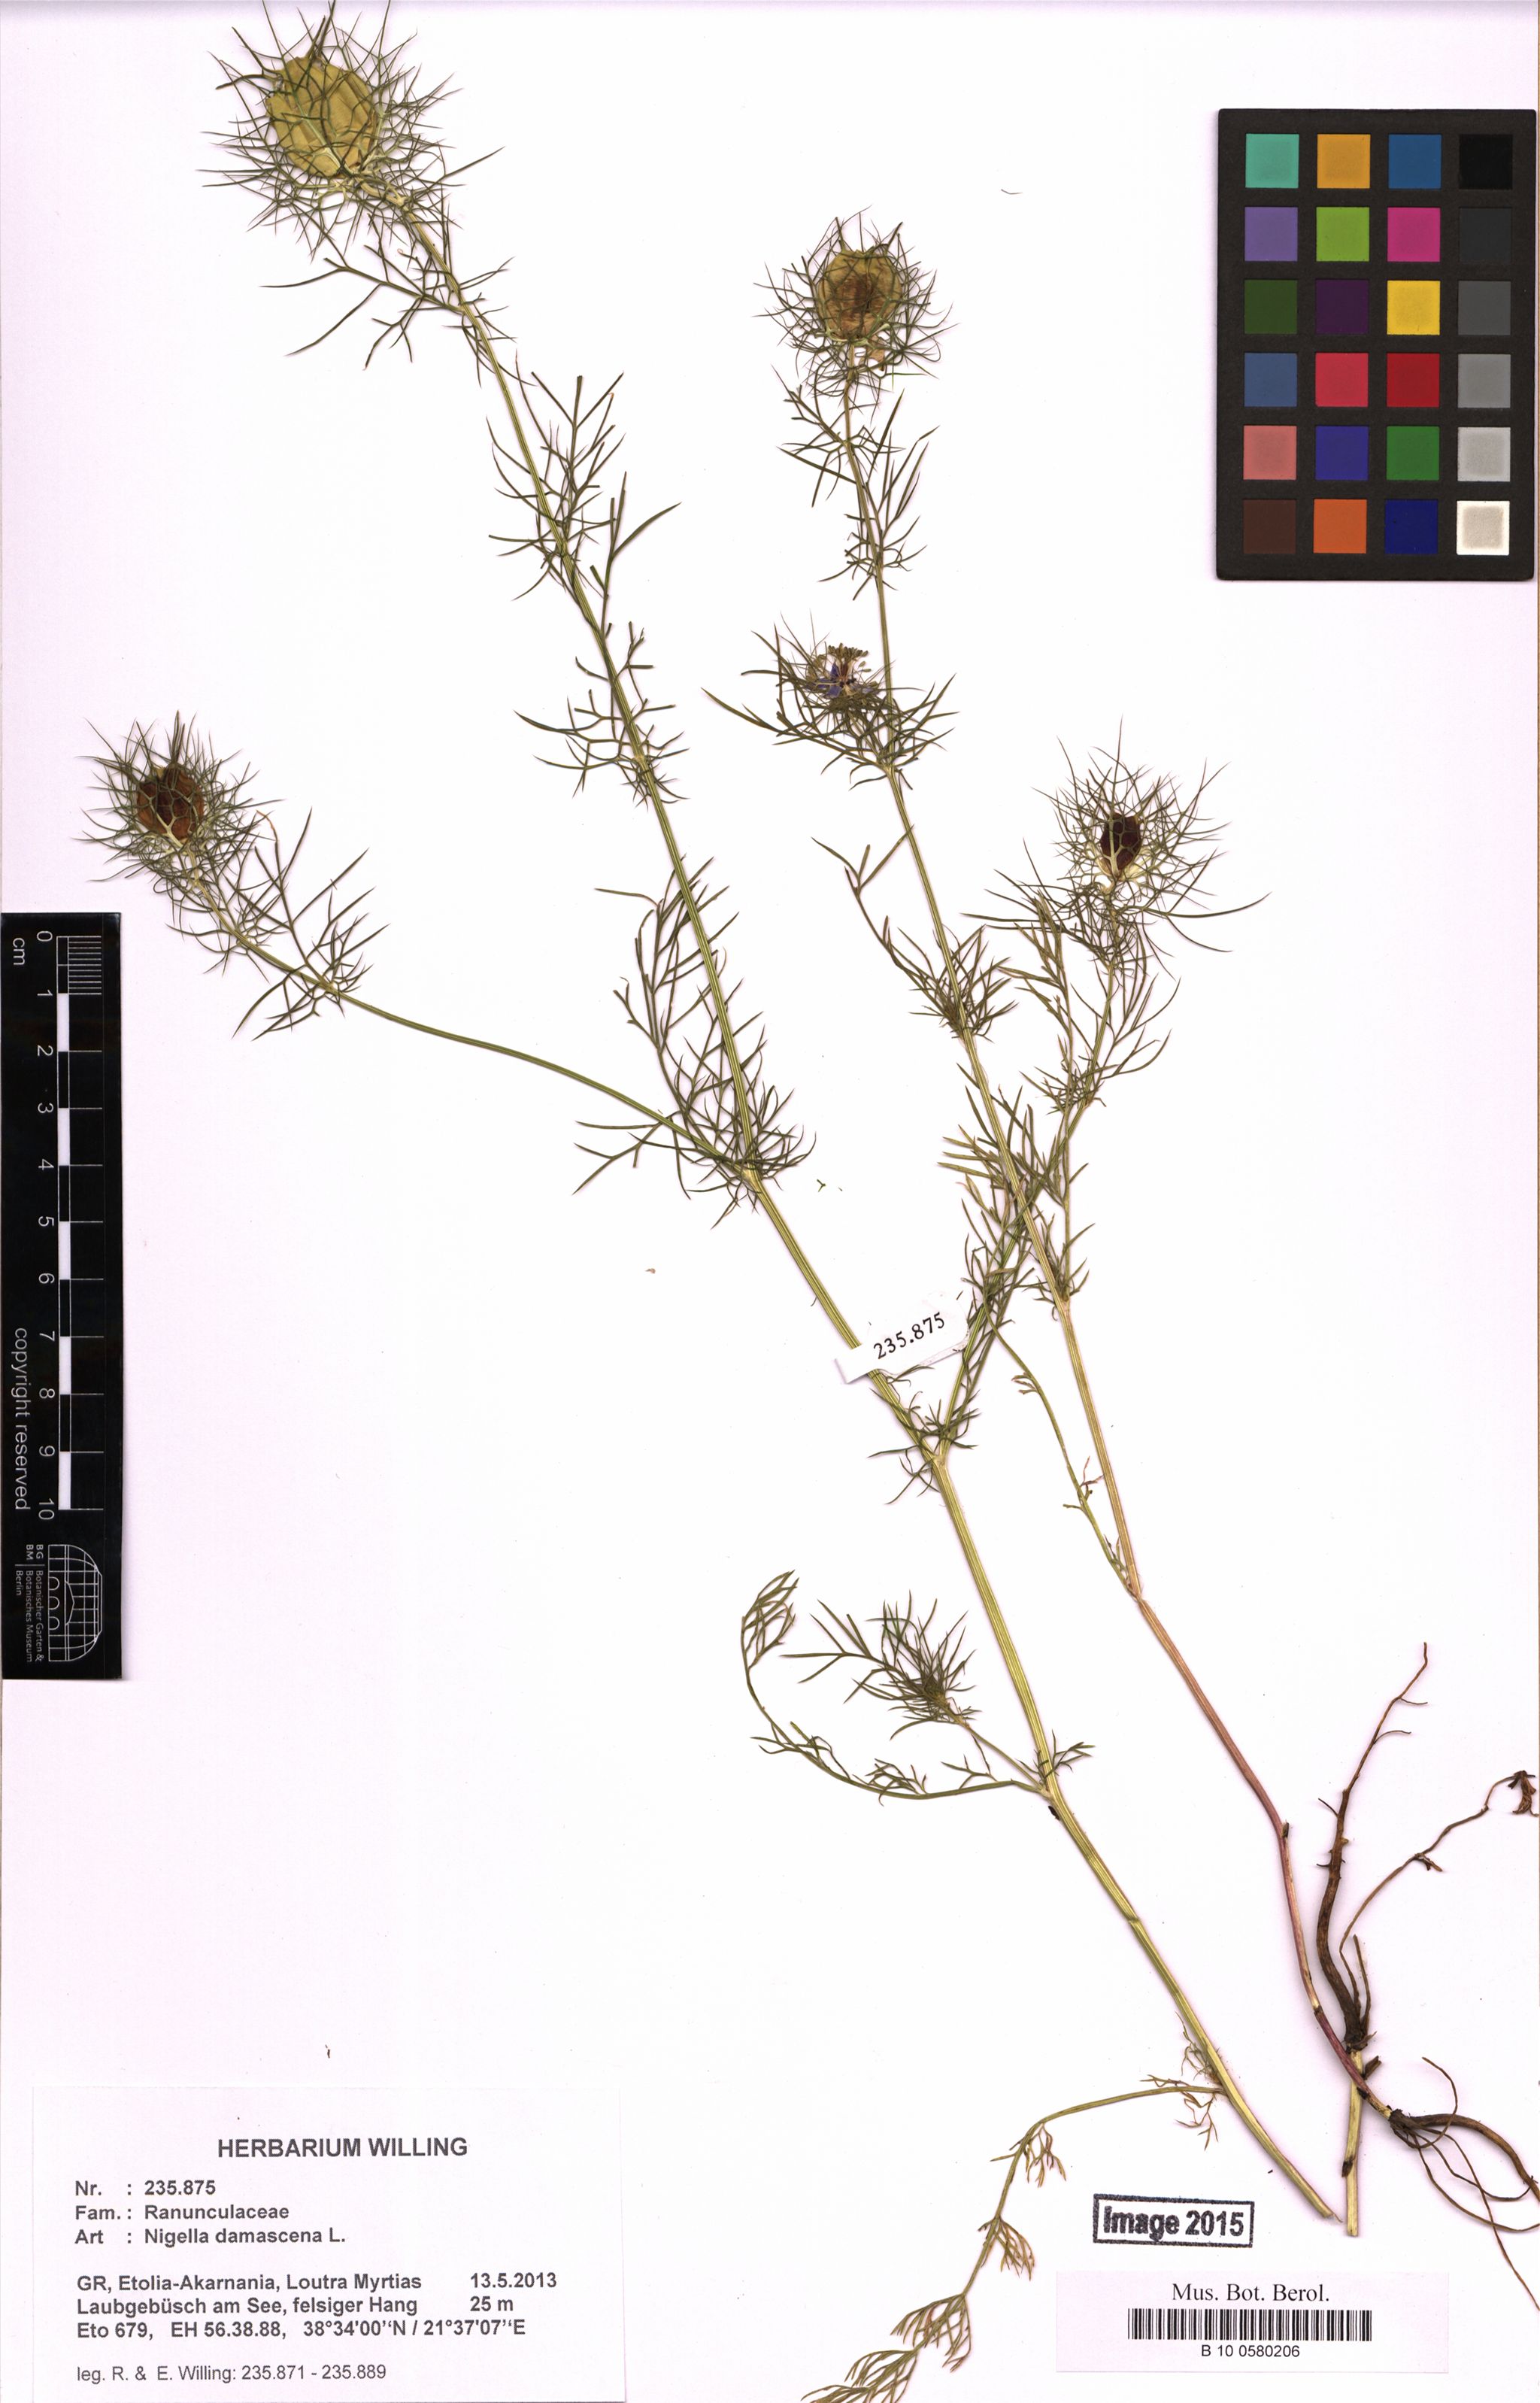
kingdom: Plantae
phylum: Tracheophyta
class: Magnoliopsida
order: Ranunculales
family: Ranunculaceae
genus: Nigella
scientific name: Nigella damascena
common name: Love-in-a-mist
